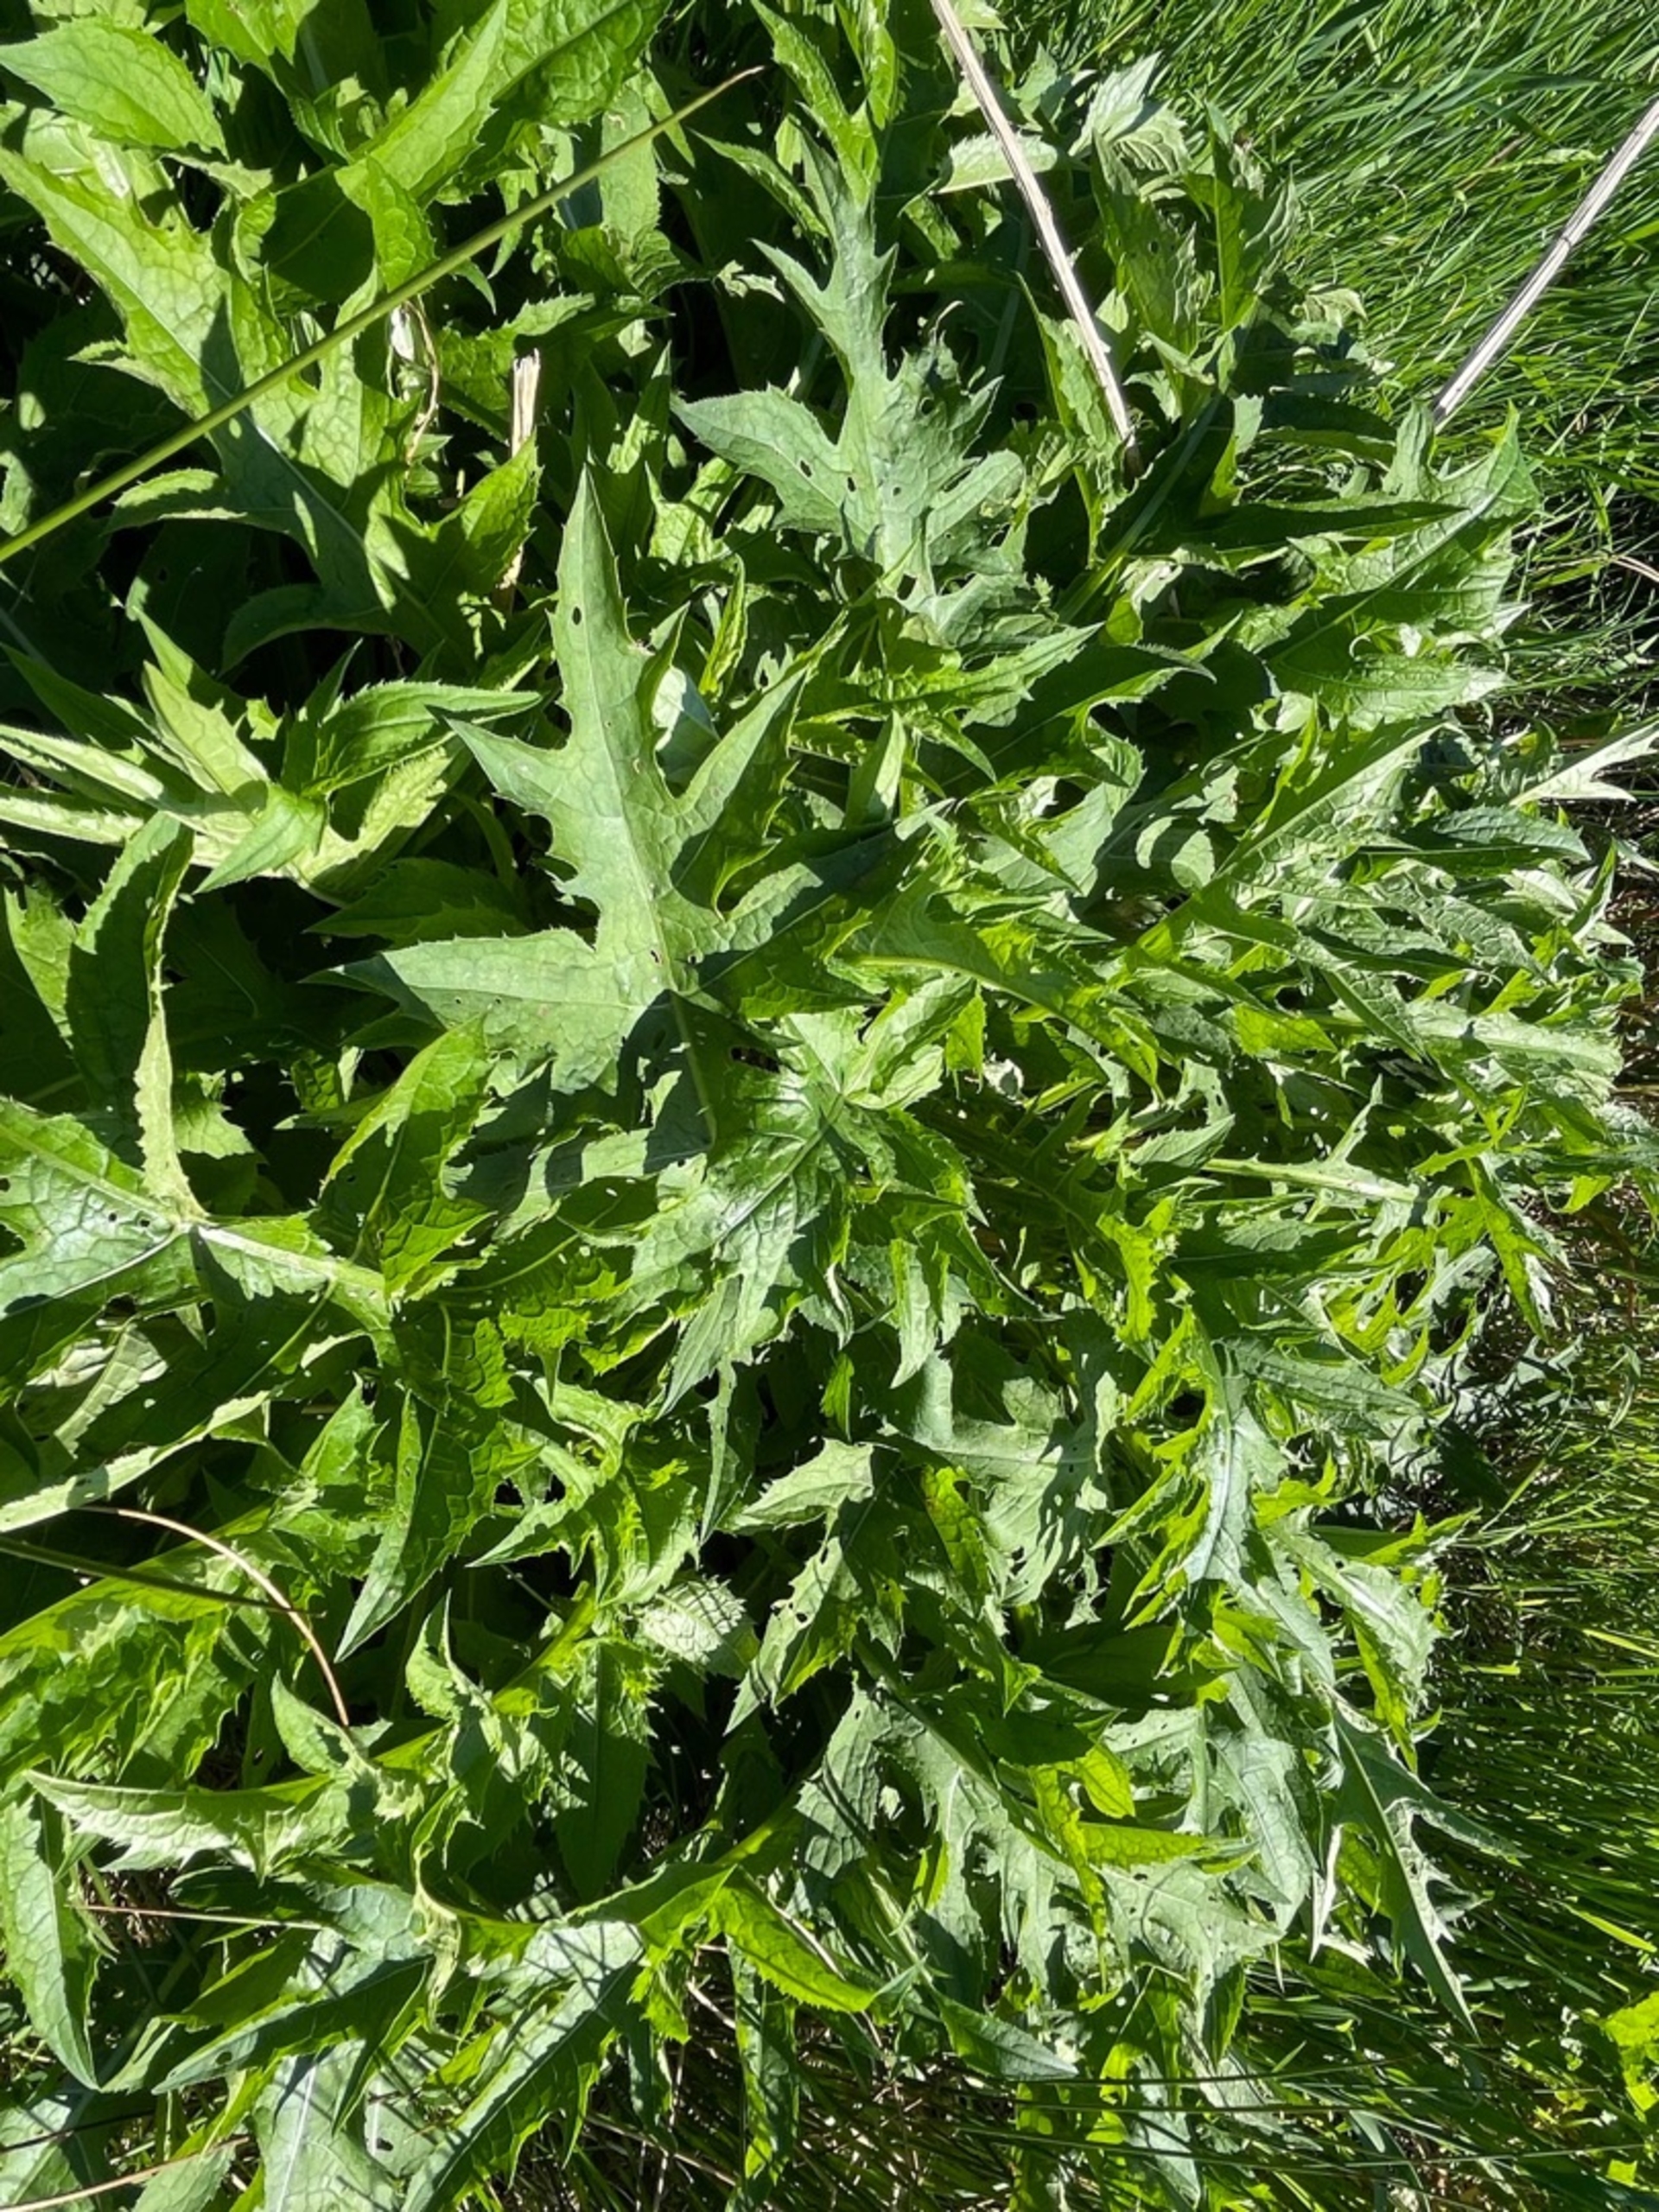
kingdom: Plantae
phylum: Tracheophyta
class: Magnoliopsida
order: Asterales
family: Asteraceae
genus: Cirsium
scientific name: Cirsium oleraceum
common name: Kål-tidsel
